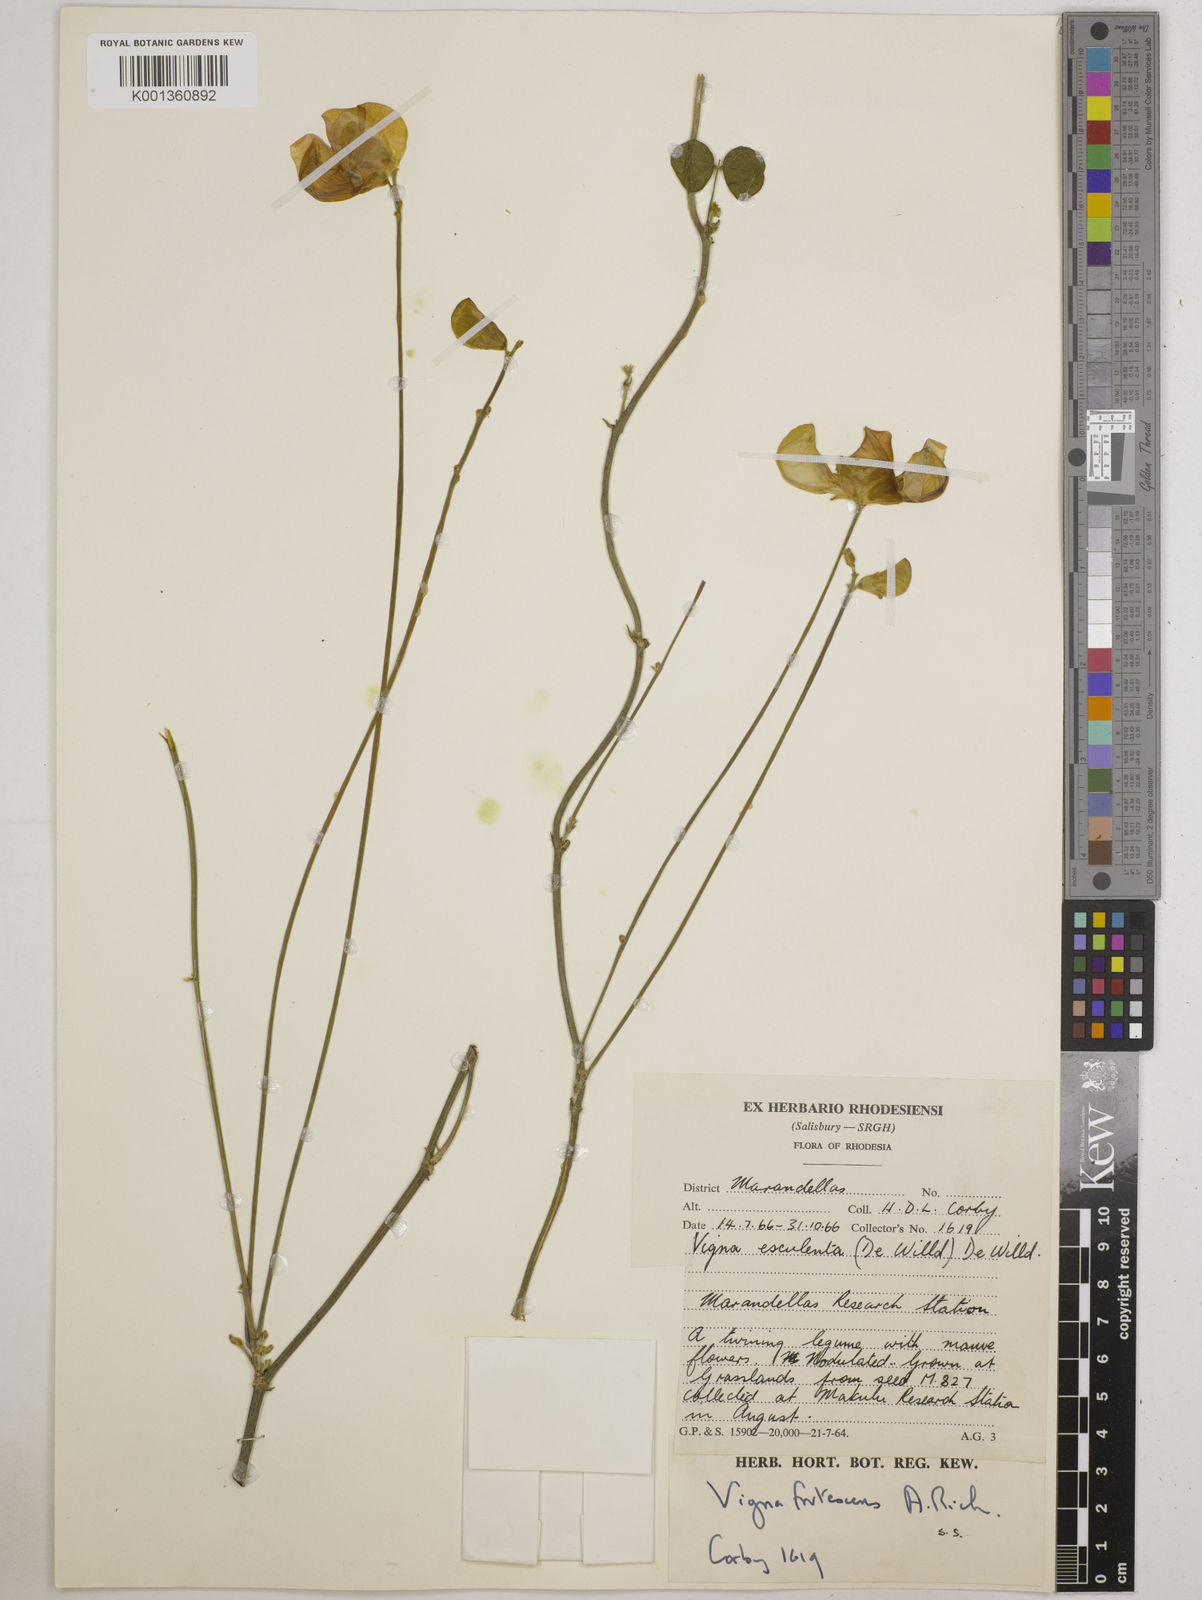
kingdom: Plantae
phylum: Tracheophyta
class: Magnoliopsida
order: Fabales
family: Fabaceae
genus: Vigna
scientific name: Vigna
